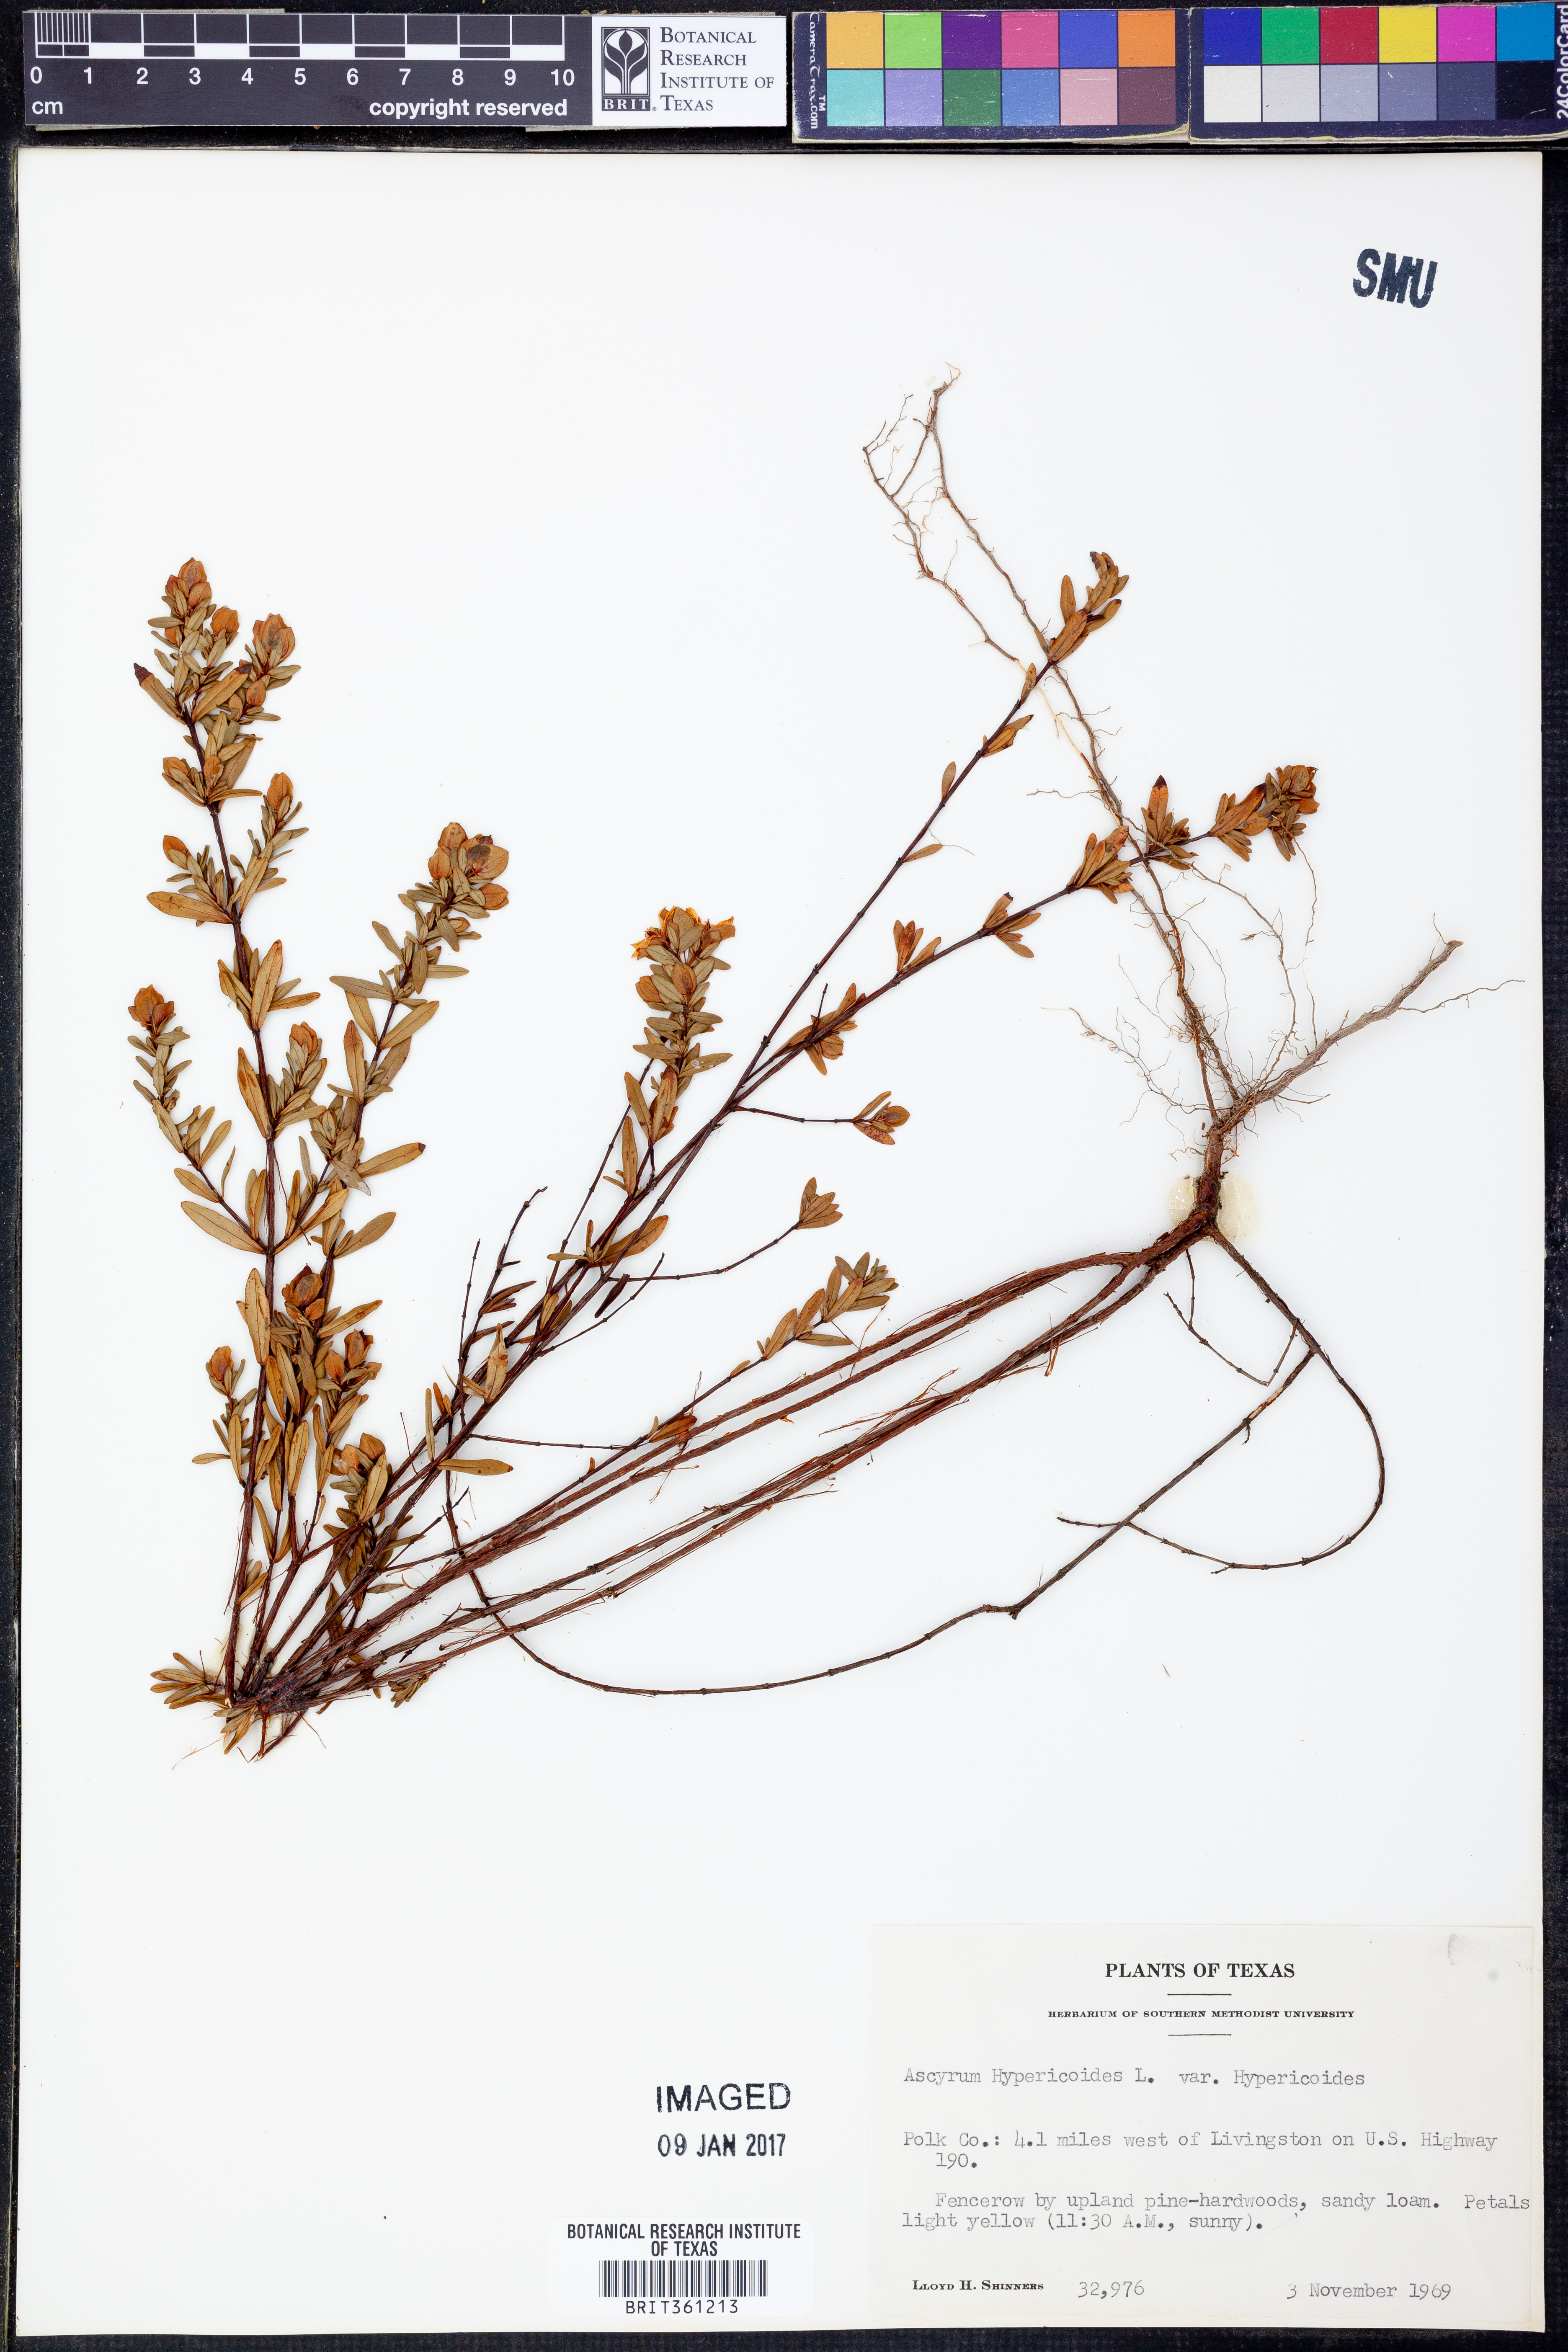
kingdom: Plantae
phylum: Tracheophyta
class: Magnoliopsida
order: Malpighiales
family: Hypericaceae
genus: Hypericum
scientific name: Hypericum hypericoides
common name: St. andrew's cross
